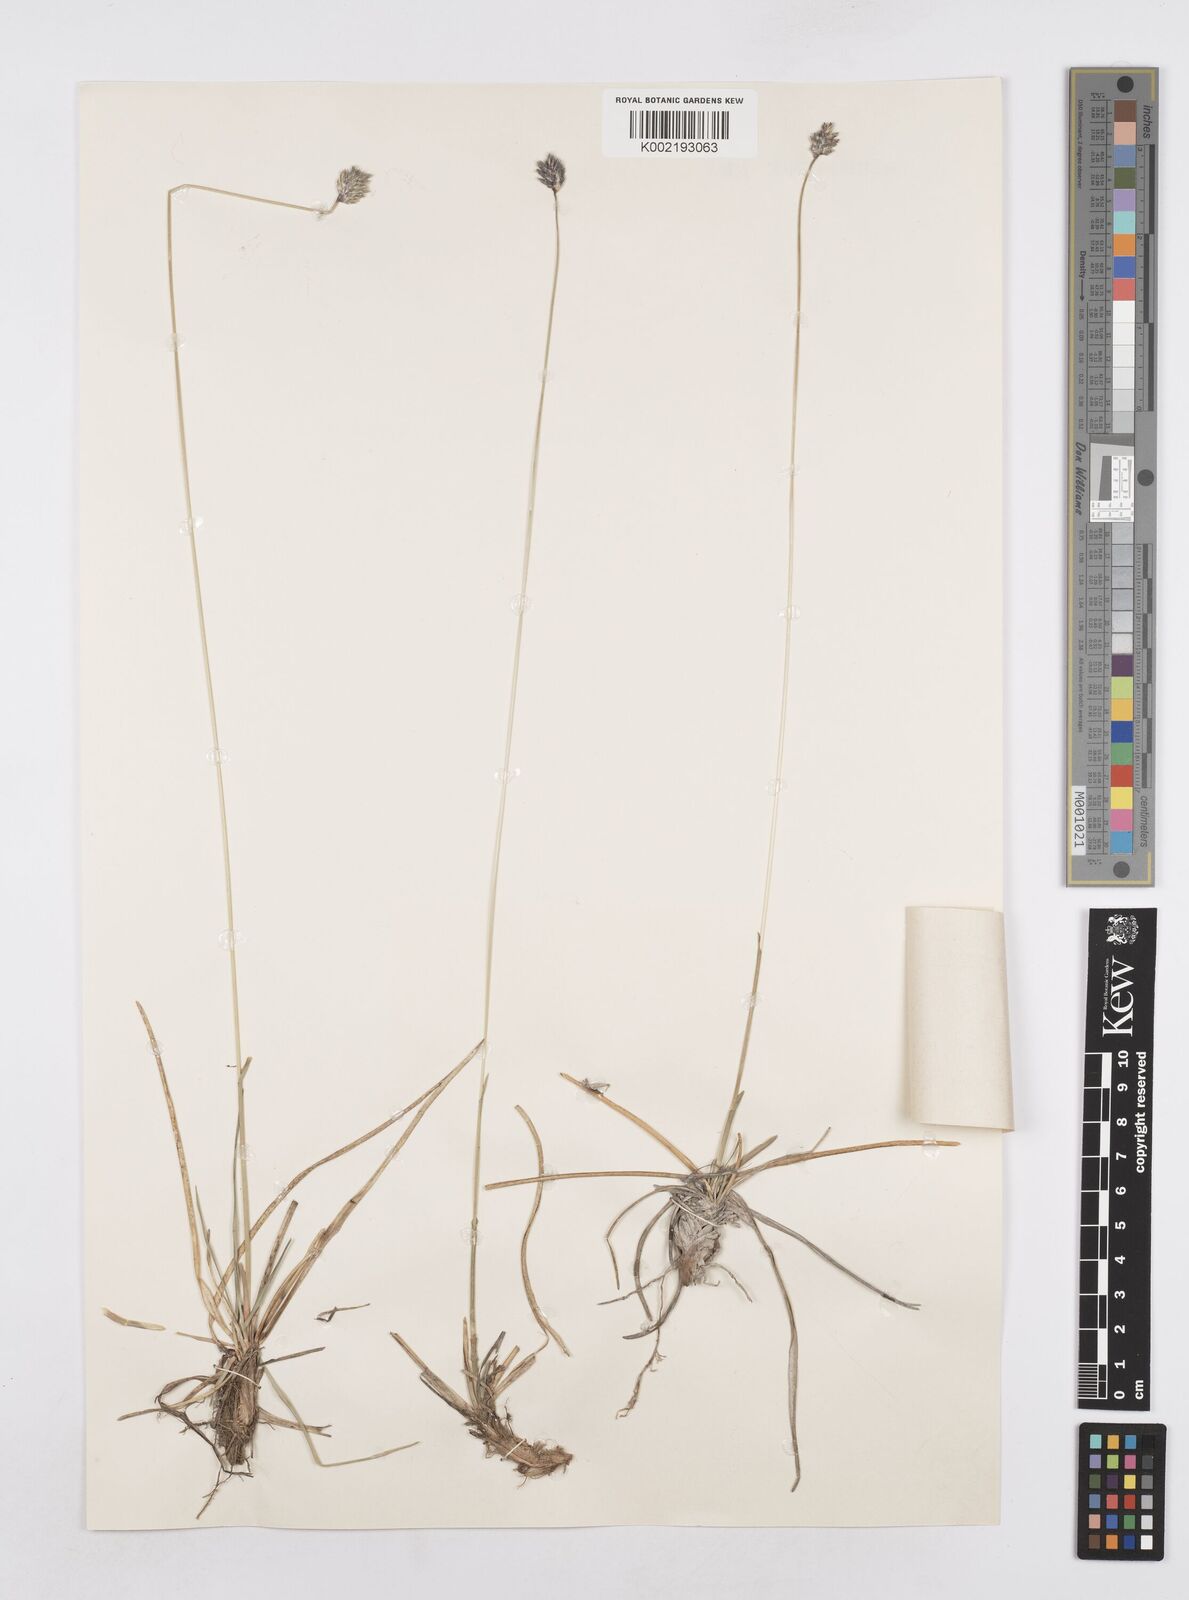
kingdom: Plantae
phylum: Tracheophyta
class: Liliopsida
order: Poales
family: Poaceae
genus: Sesleria
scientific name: Sesleria caerulea
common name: Blue moor-grass
